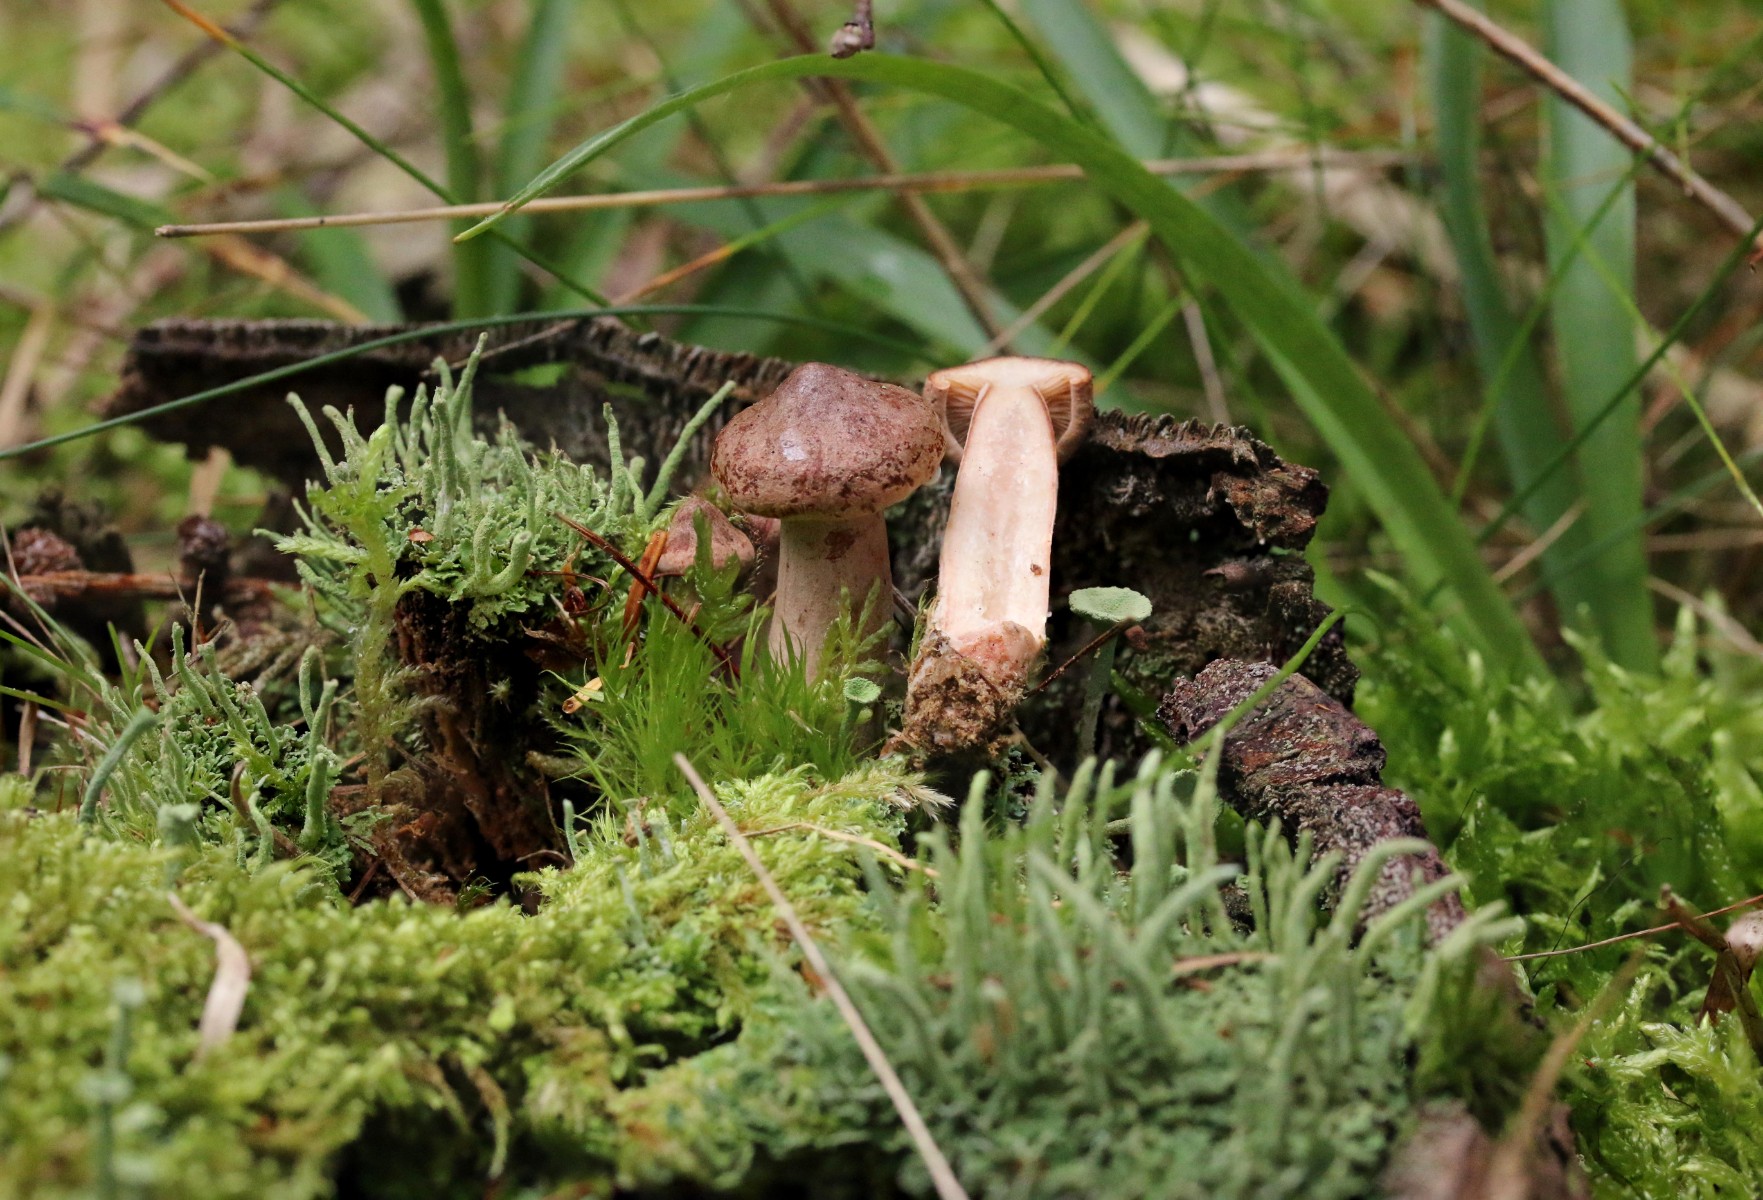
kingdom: Fungi
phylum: Basidiomycota
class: Agaricomycetes
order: Russulales
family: Russulaceae
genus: Lactarius
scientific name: Lactarius rufus
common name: rødbrun mælkehat
